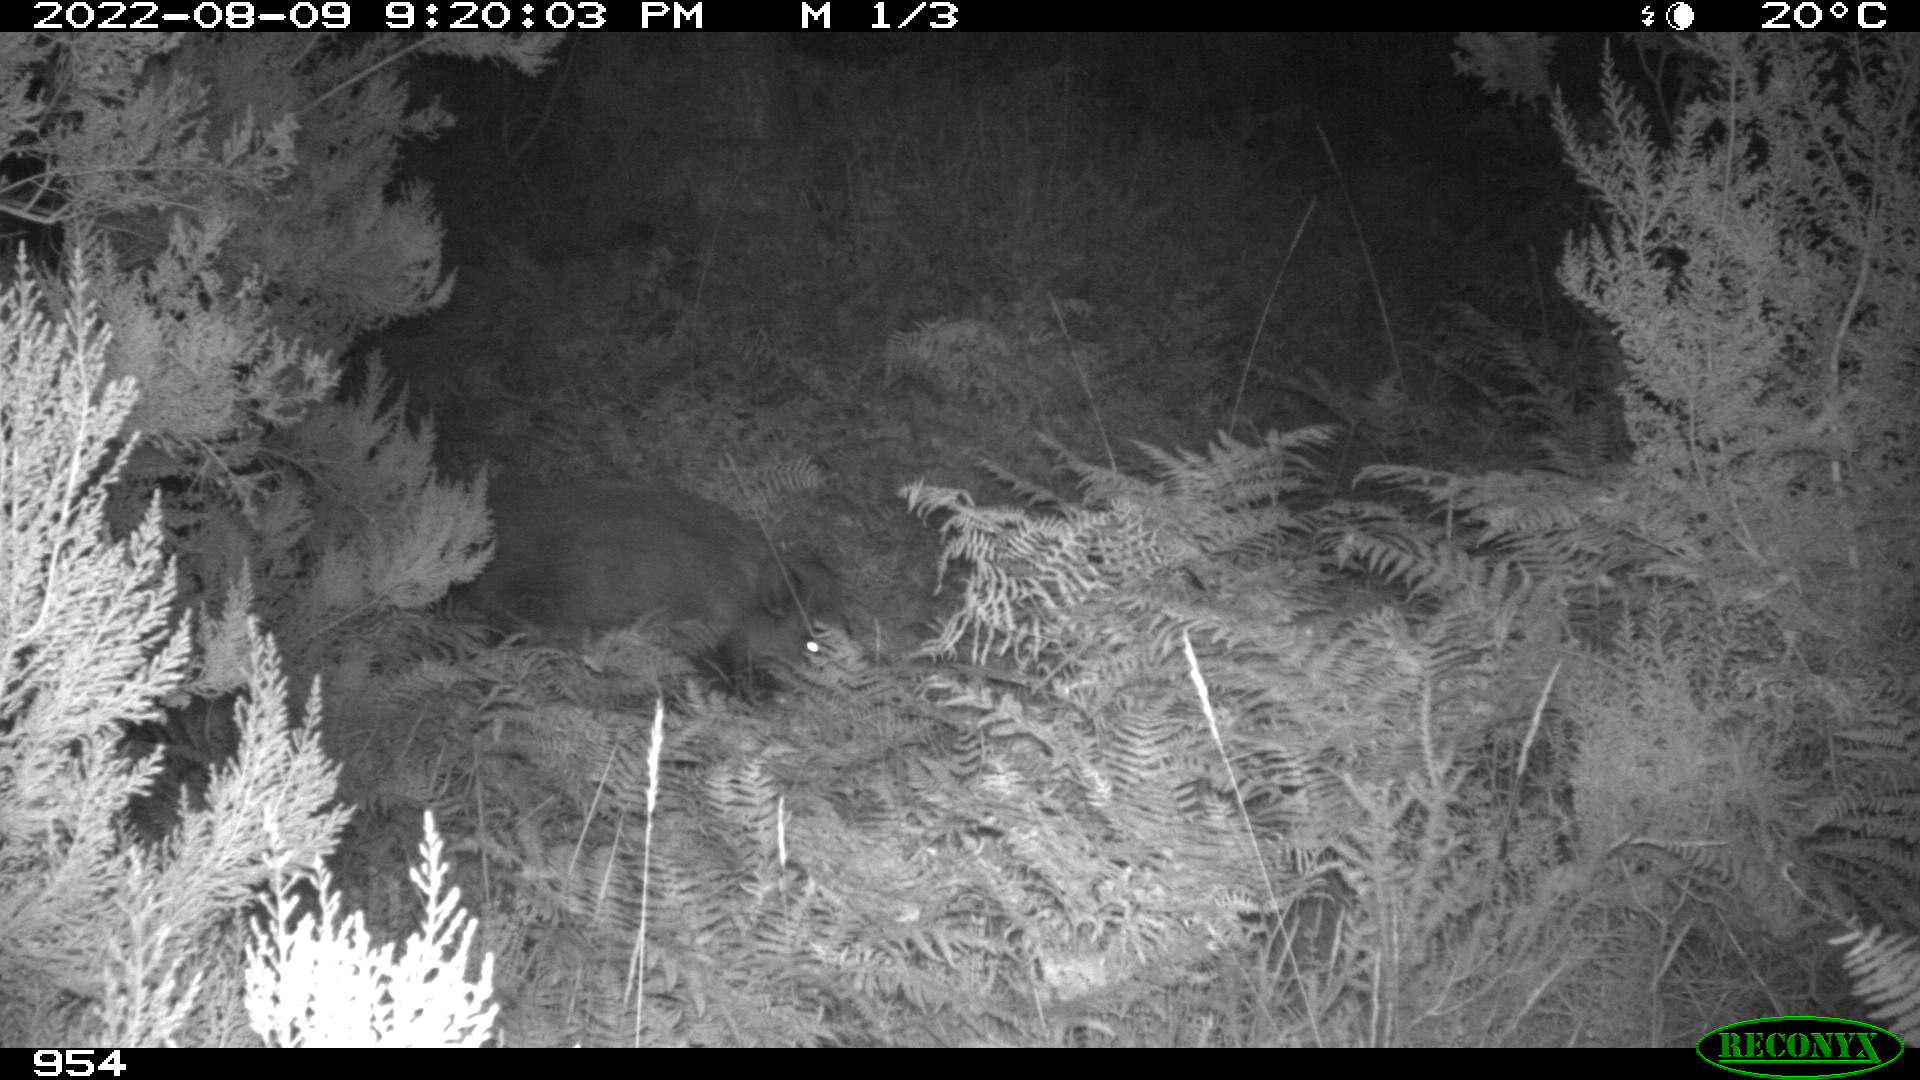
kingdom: Animalia
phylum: Chordata
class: Mammalia
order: Artiodactyla
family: Suidae
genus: Sus
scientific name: Sus scrofa
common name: Wild boar
